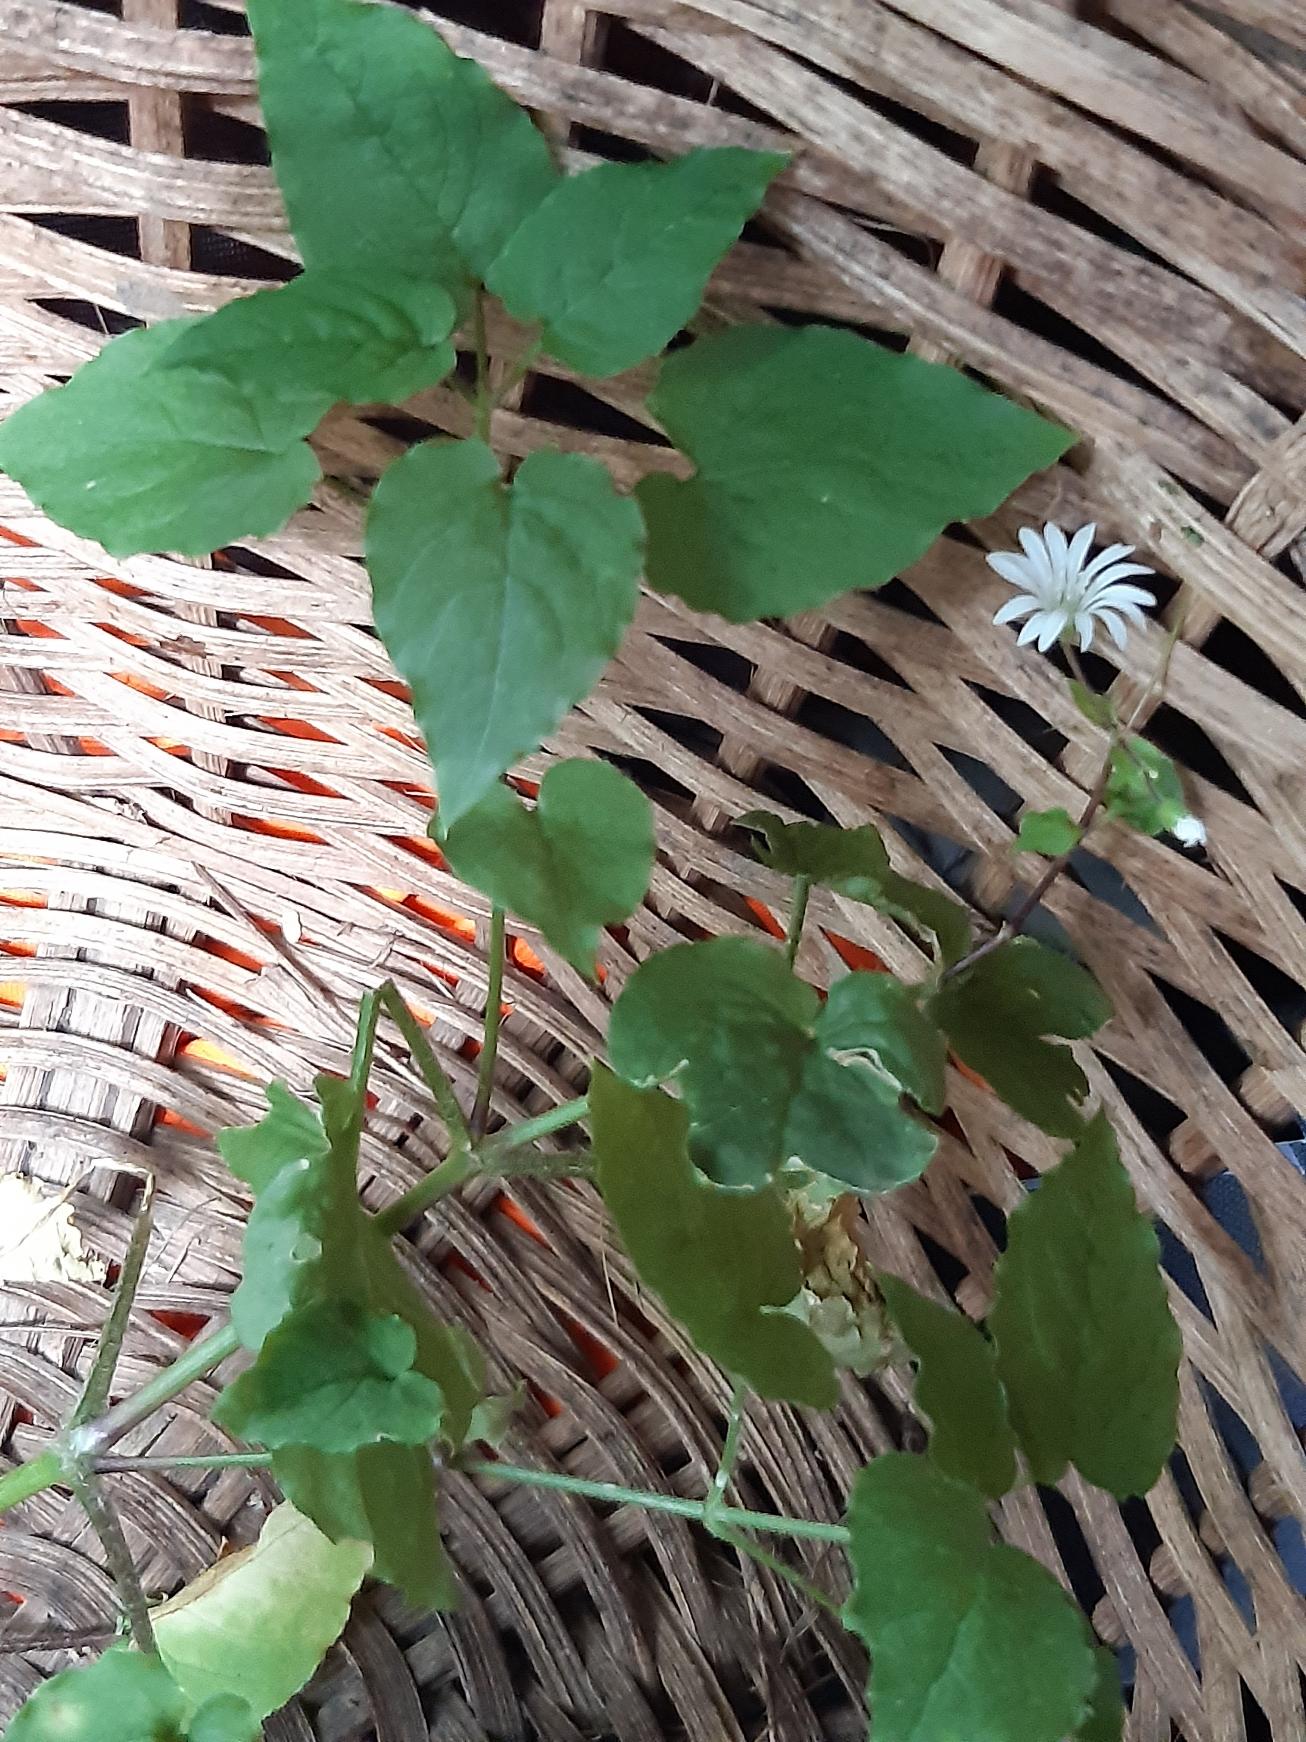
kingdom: Plantae
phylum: Tracheophyta
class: Magnoliopsida
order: Caryophyllales
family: Caryophyllaceae
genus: Stellaria
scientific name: Stellaria glochidisperma
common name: Sydlig lund-fladstjerne
